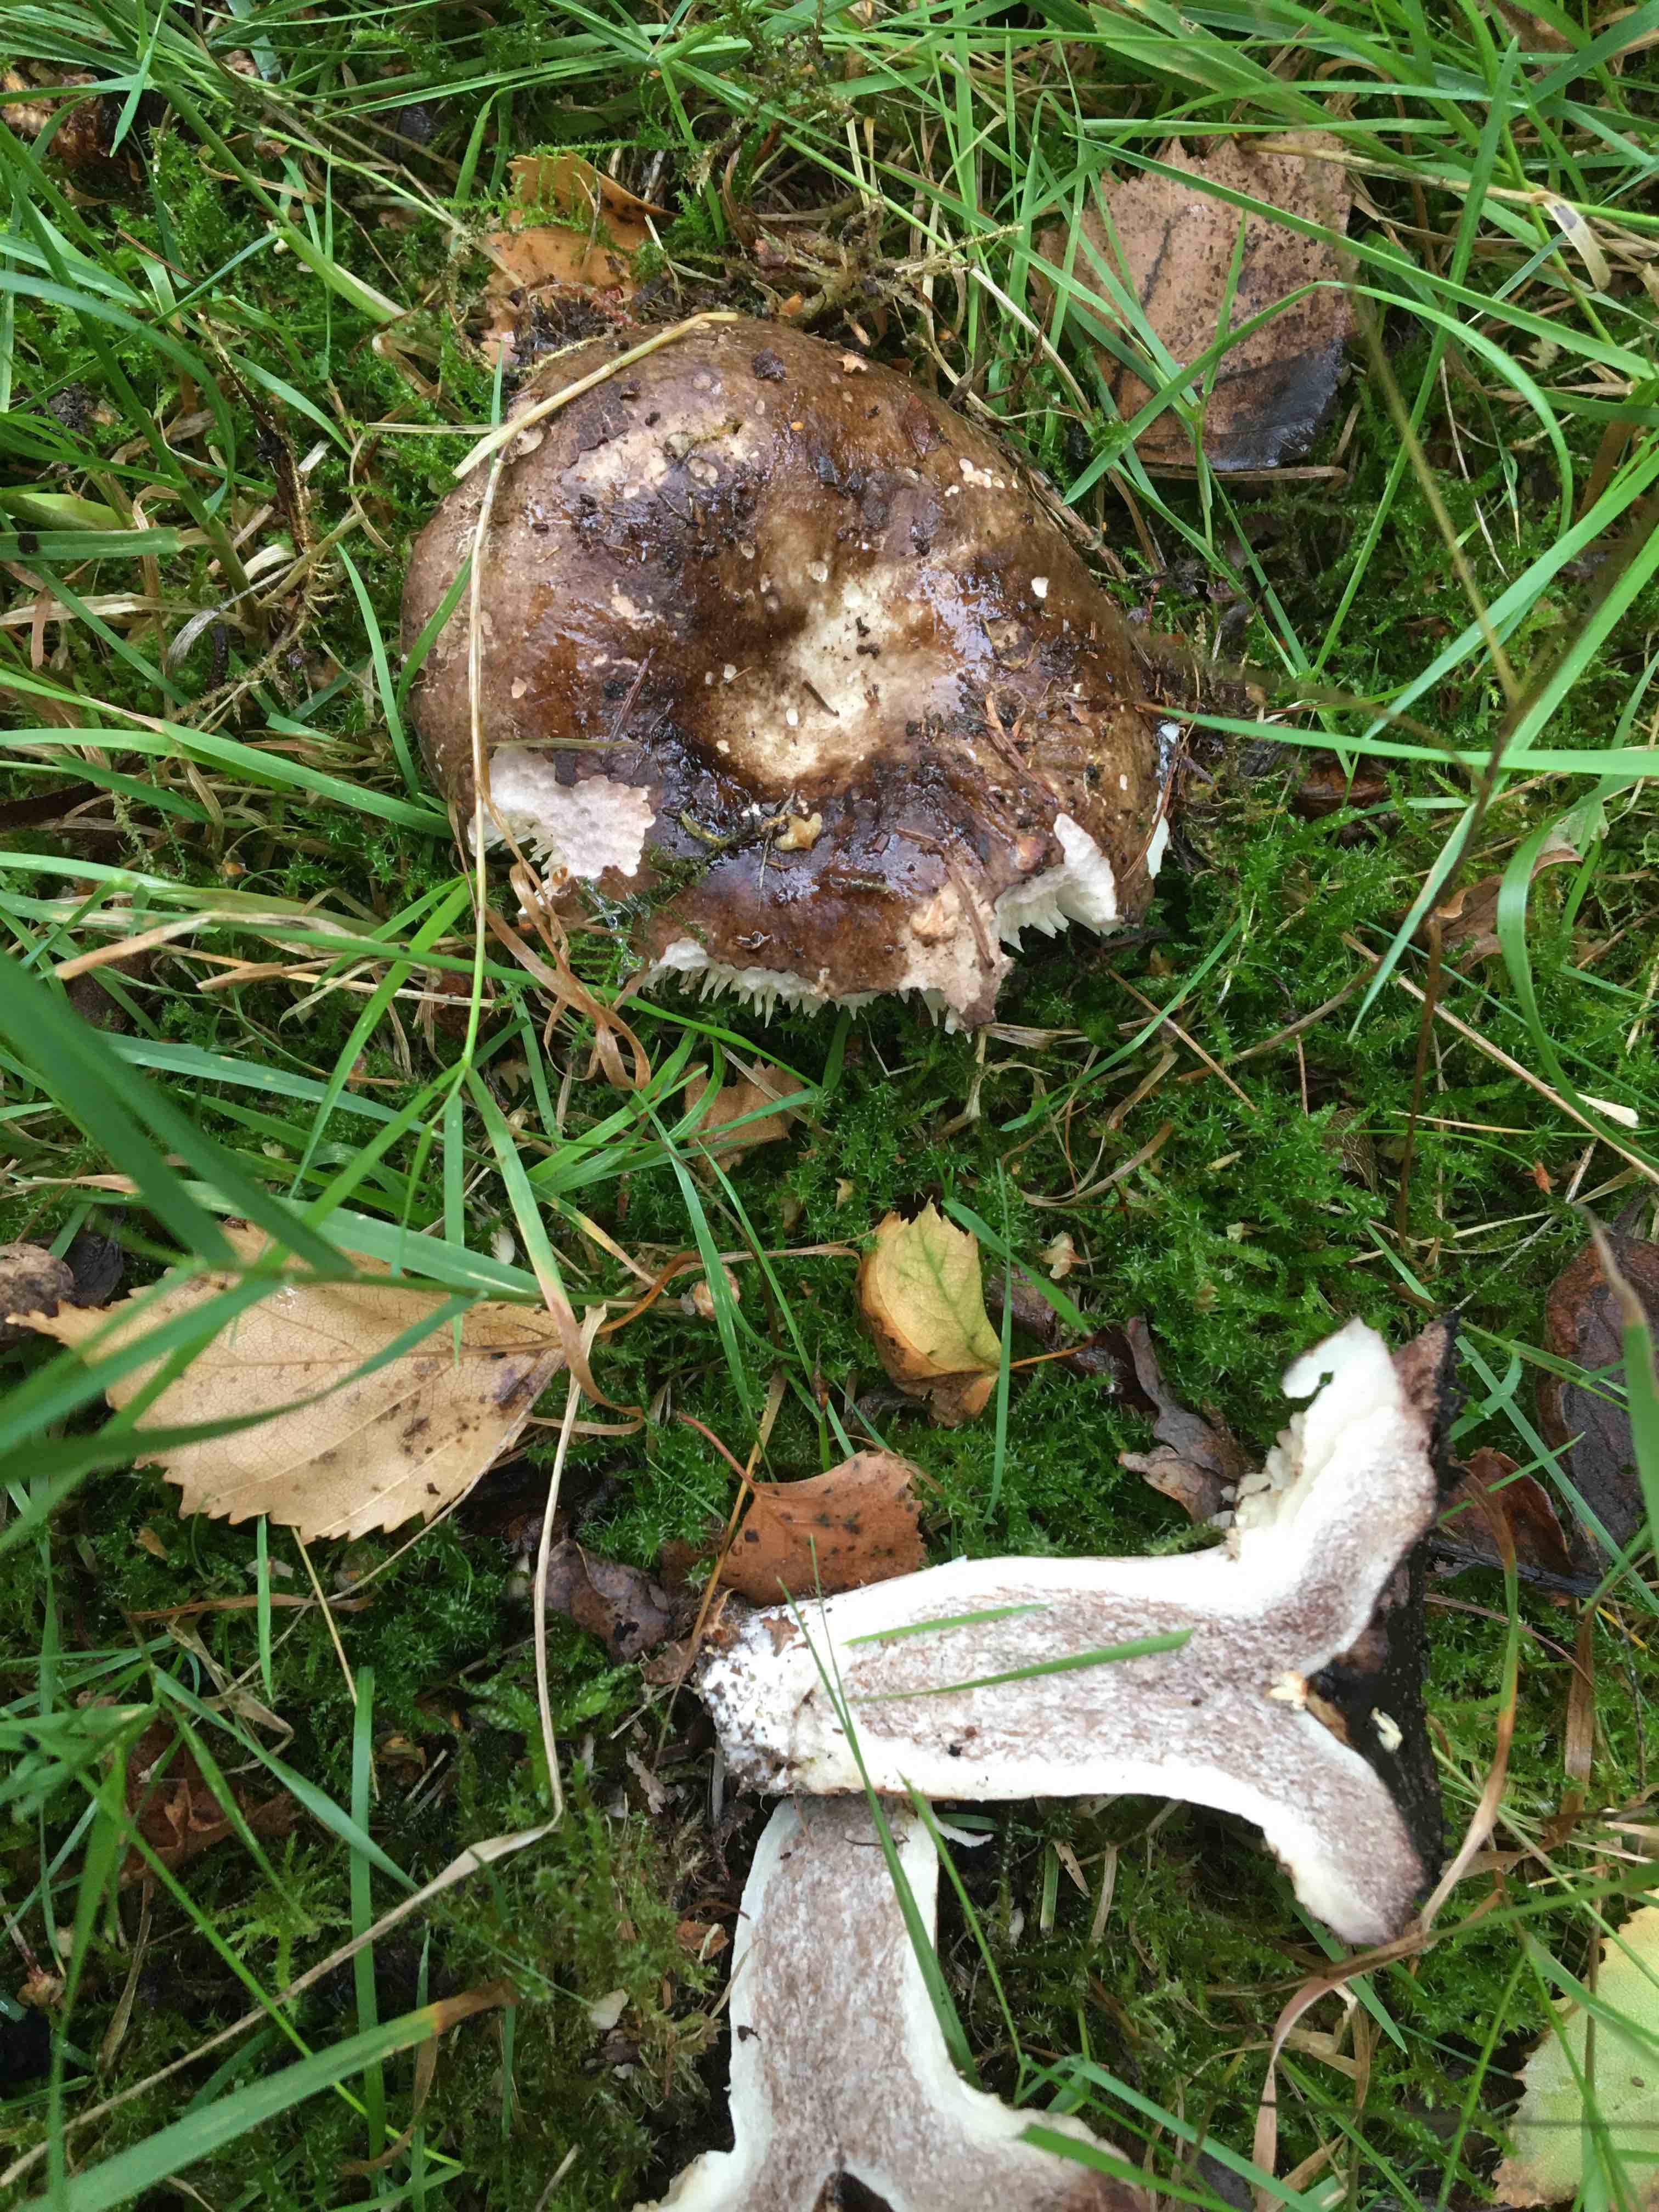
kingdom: Fungi
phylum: Basidiomycota
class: Agaricomycetes
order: Russulales
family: Russulaceae
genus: Russula
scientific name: Russula adusta
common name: sværtende skørhat
